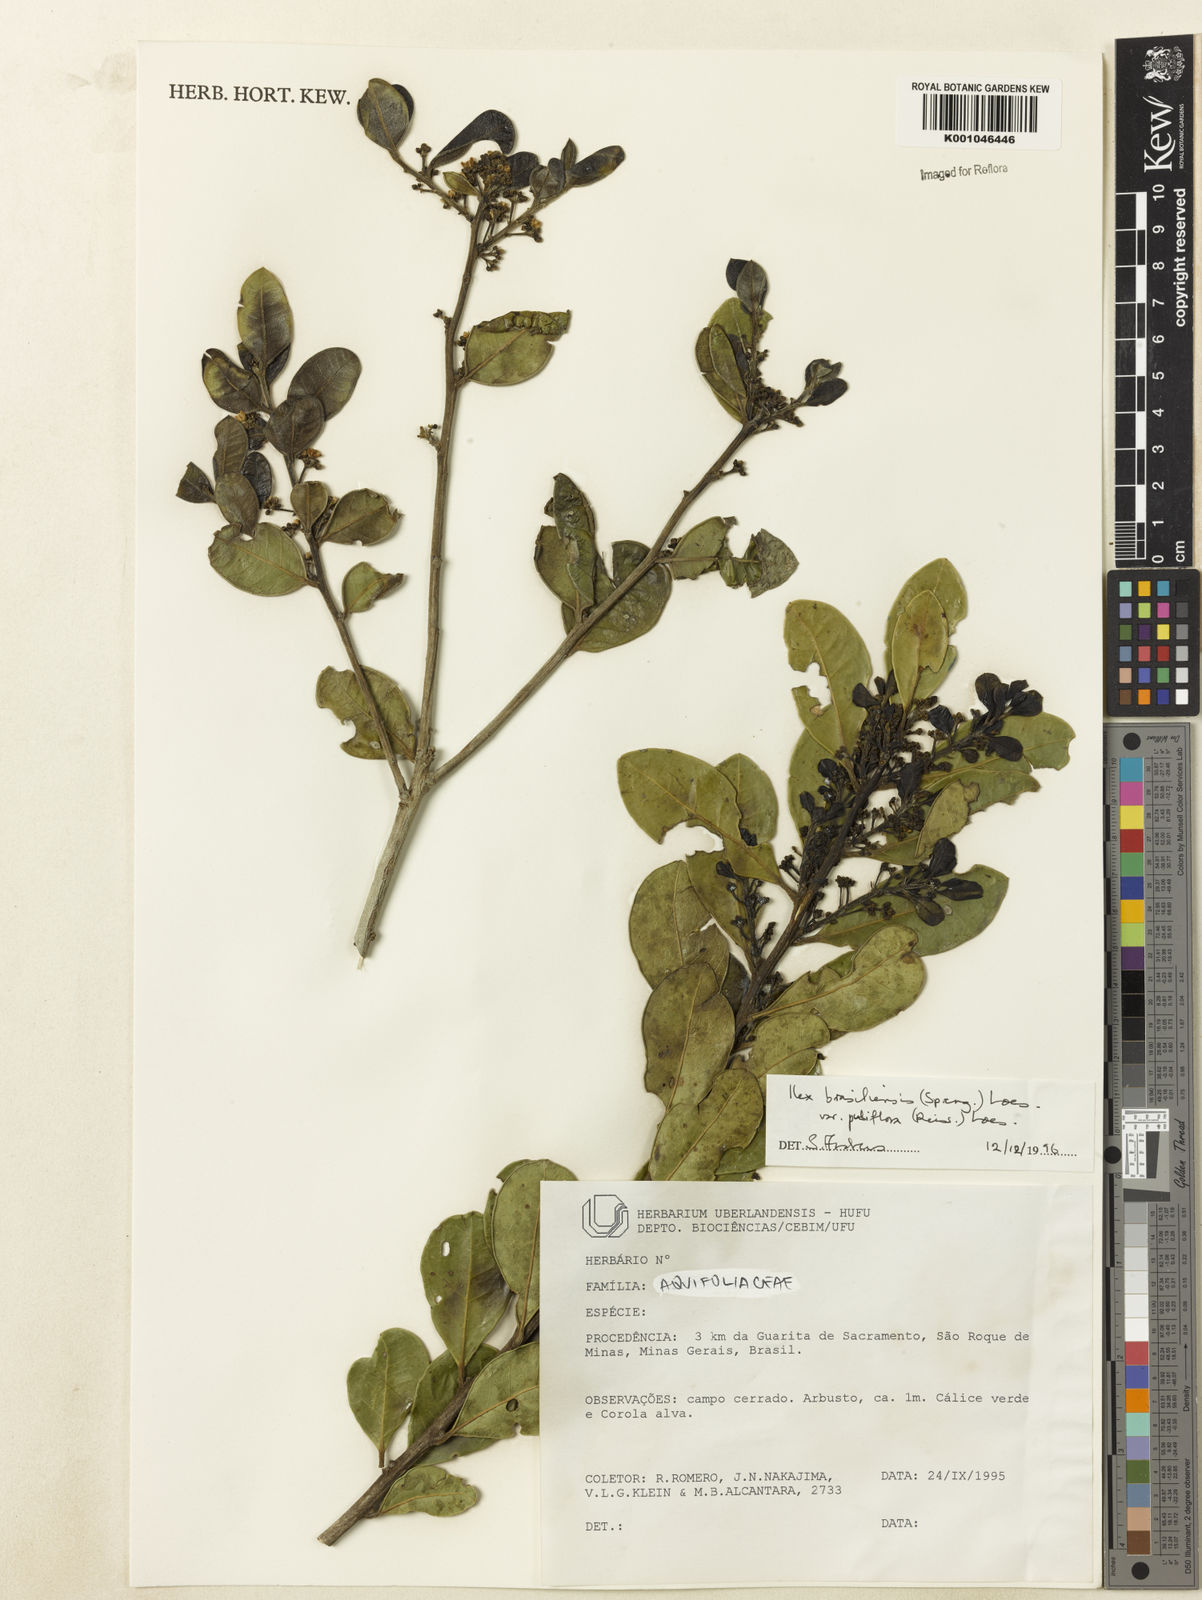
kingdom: Plantae
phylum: Tracheophyta
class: Magnoliopsida
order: Aquifoliales
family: Aquifoliaceae
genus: Ilex
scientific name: Ilex brasiliensis
